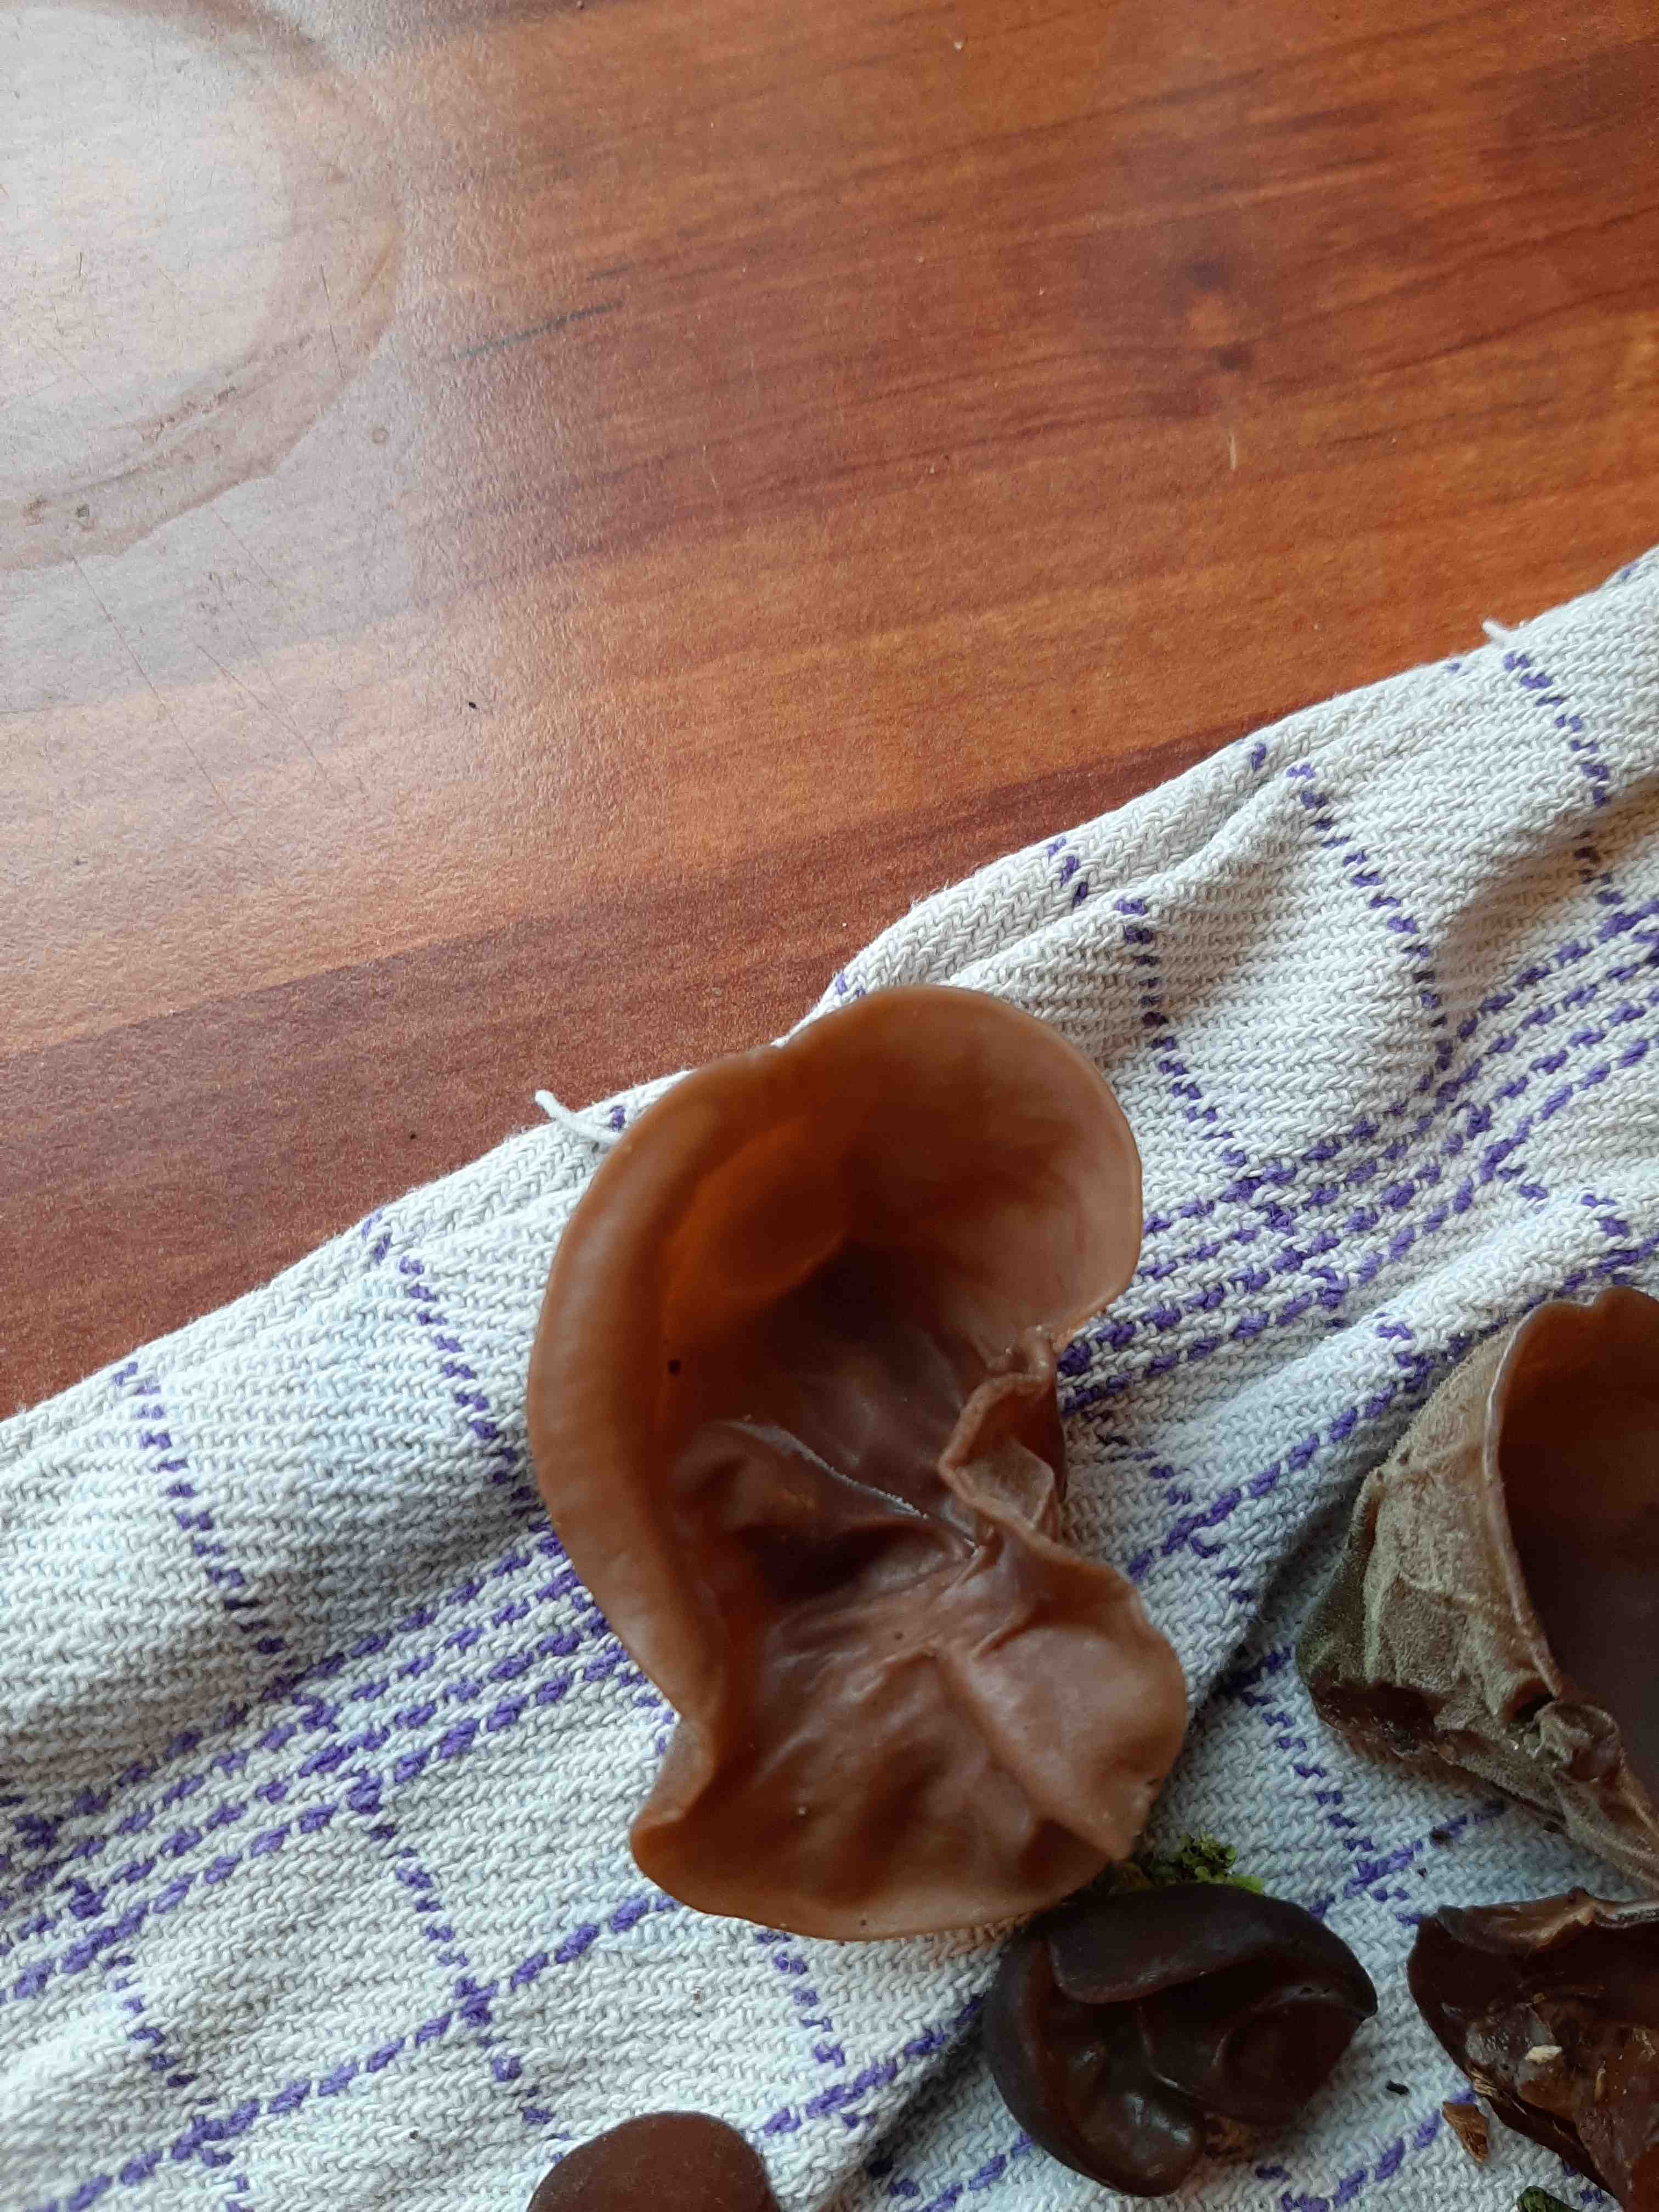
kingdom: Fungi
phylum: Basidiomycota
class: Agaricomycetes
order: Auriculariales
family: Auriculariaceae
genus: Auricularia
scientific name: Auricularia auricula-judae
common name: almindelig judasøre
